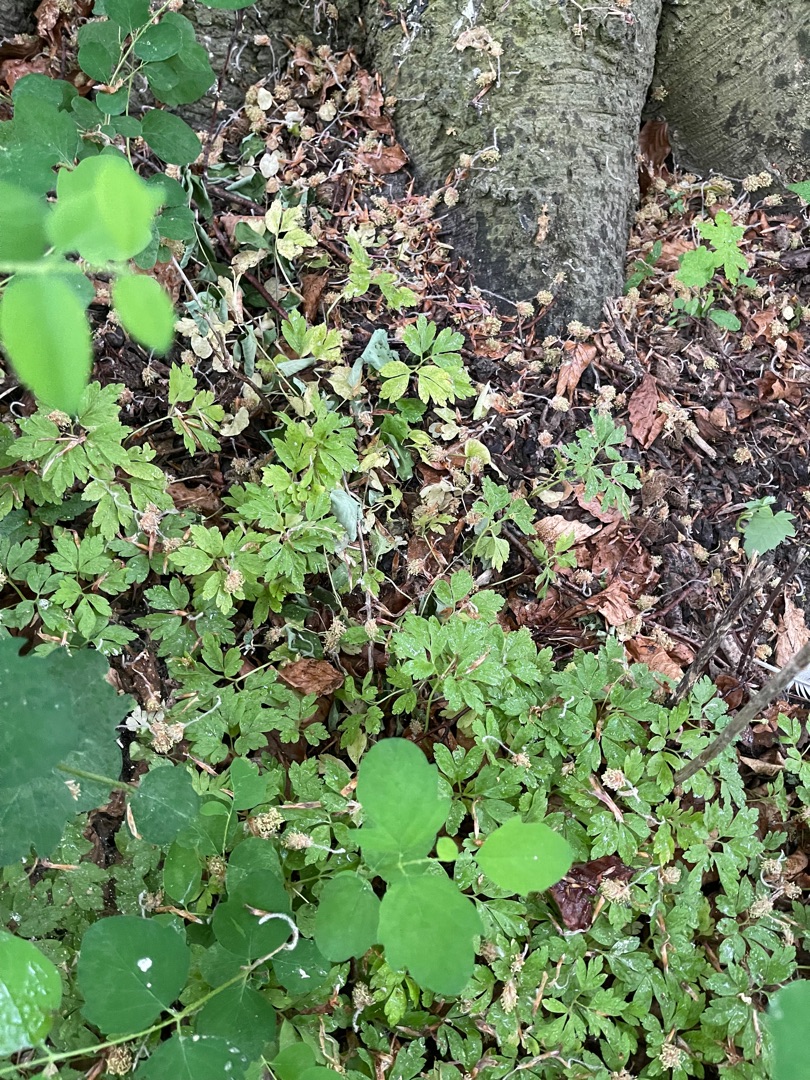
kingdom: Plantae
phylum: Tracheophyta
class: Magnoliopsida
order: Ranunculales
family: Ranunculaceae
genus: Anemone
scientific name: Anemone nemorosa
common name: Hvid anemone
